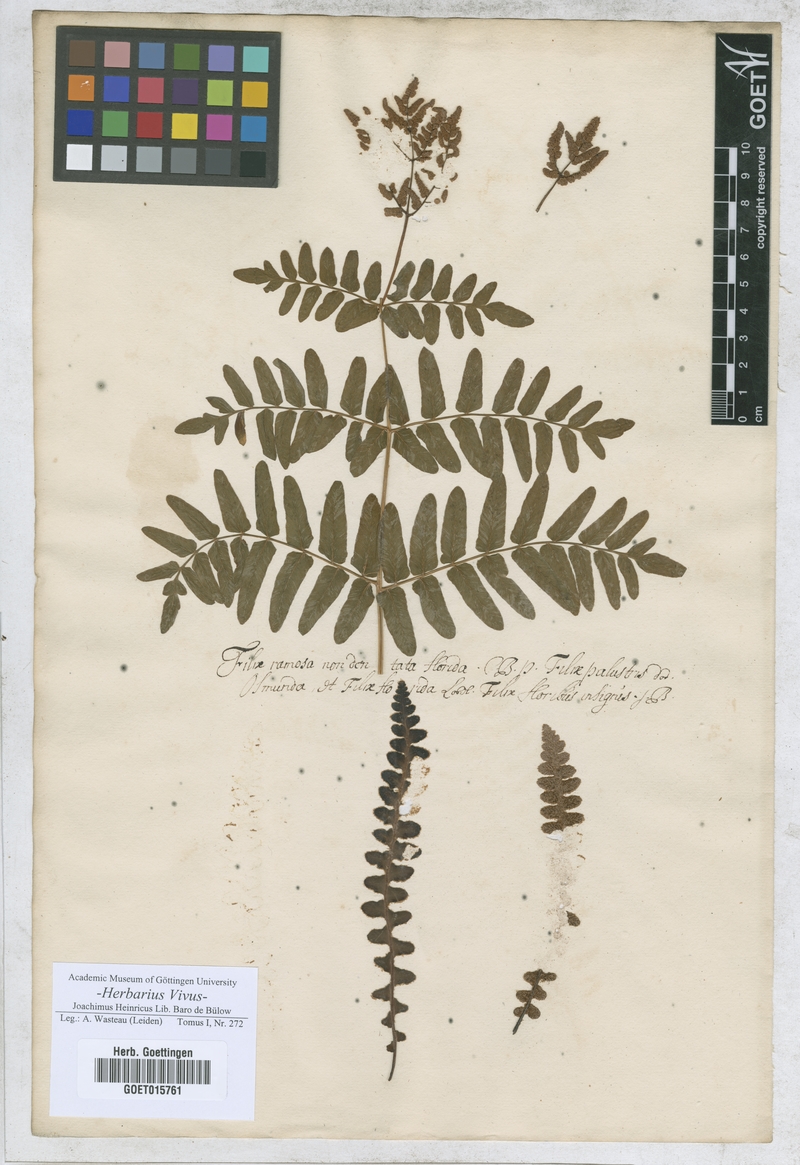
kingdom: Plantae
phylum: Tracheophyta
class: Polypodiopsida
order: Osmundales
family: Osmundaceae
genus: Osmunda
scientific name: Osmunda regalis
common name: Royal fern
